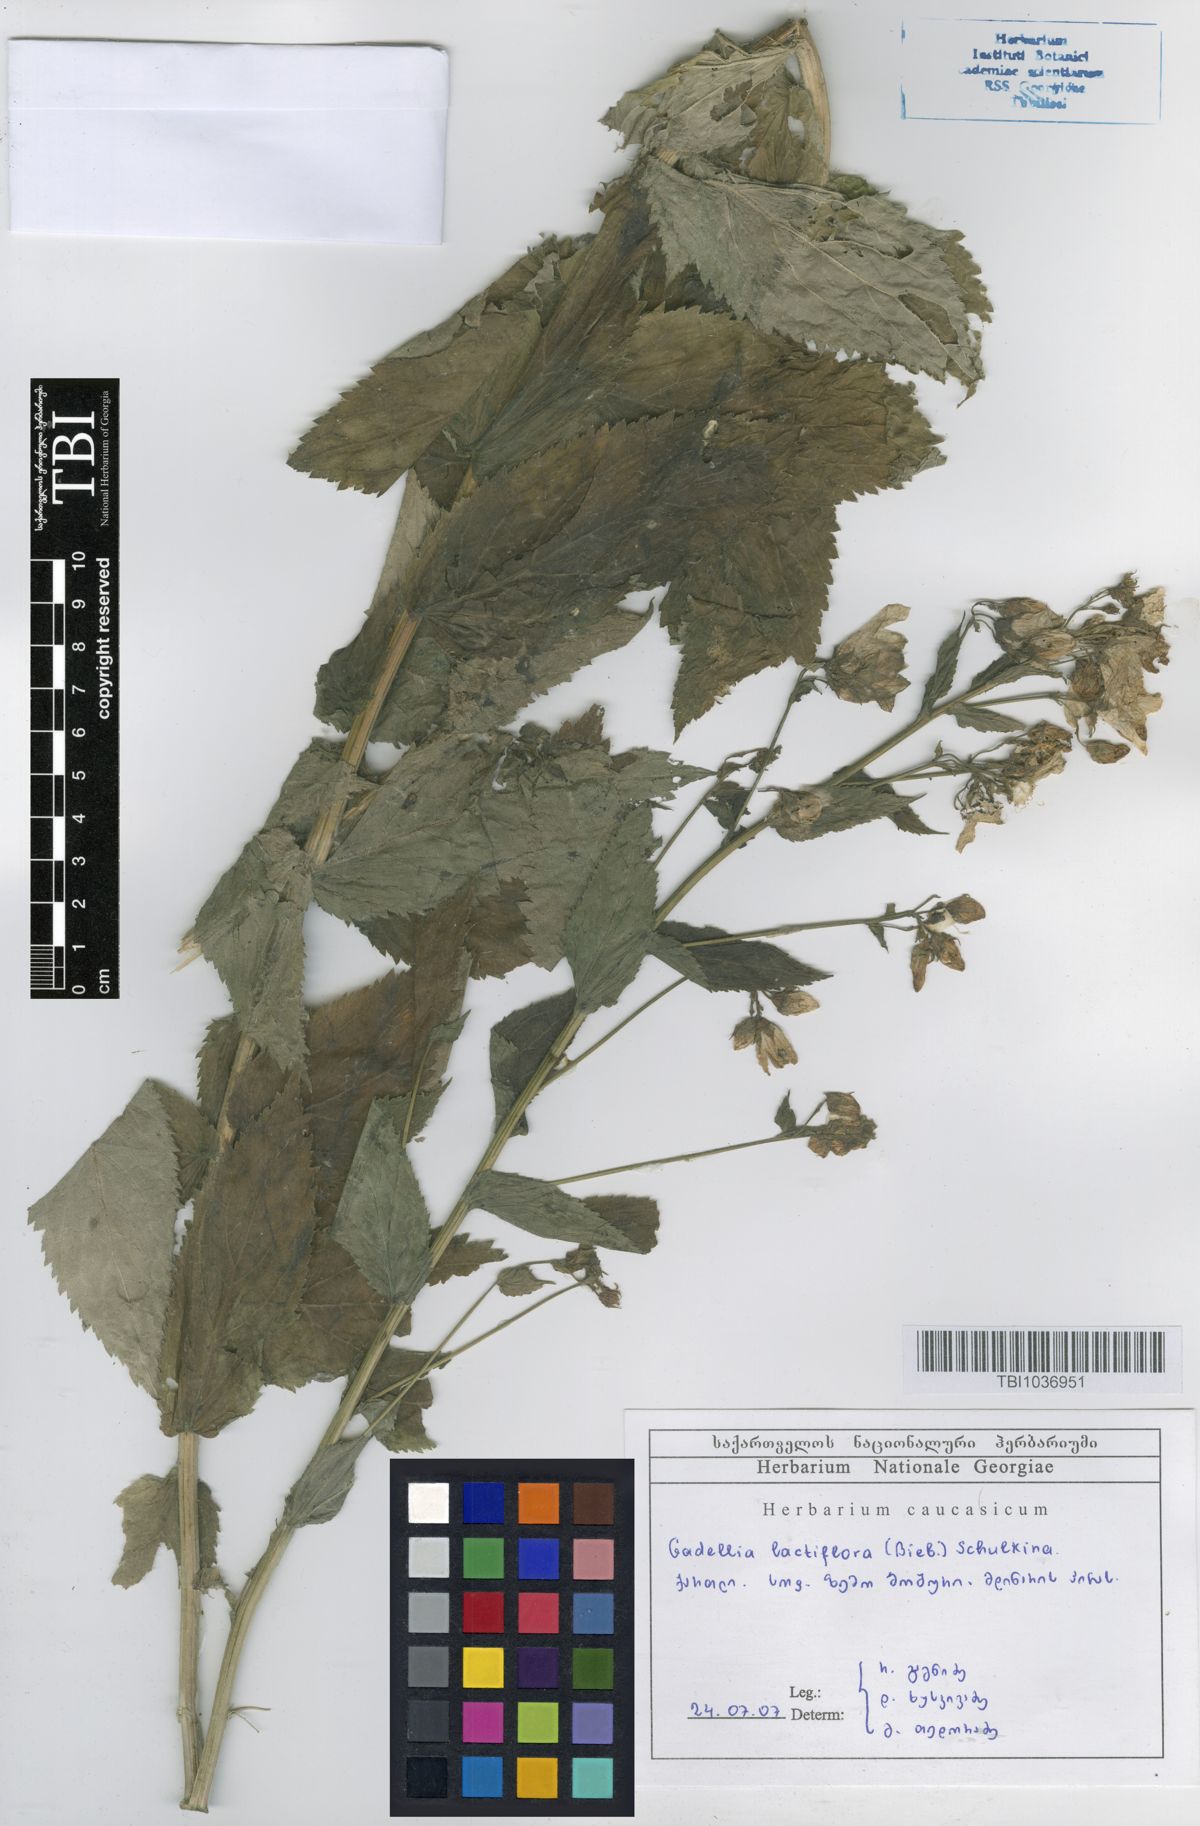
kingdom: Plantae
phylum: Tracheophyta
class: Magnoliopsida
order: Asterales
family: Campanulaceae
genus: Campanula
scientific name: Campanula lactiflora
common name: Milky bellflower
